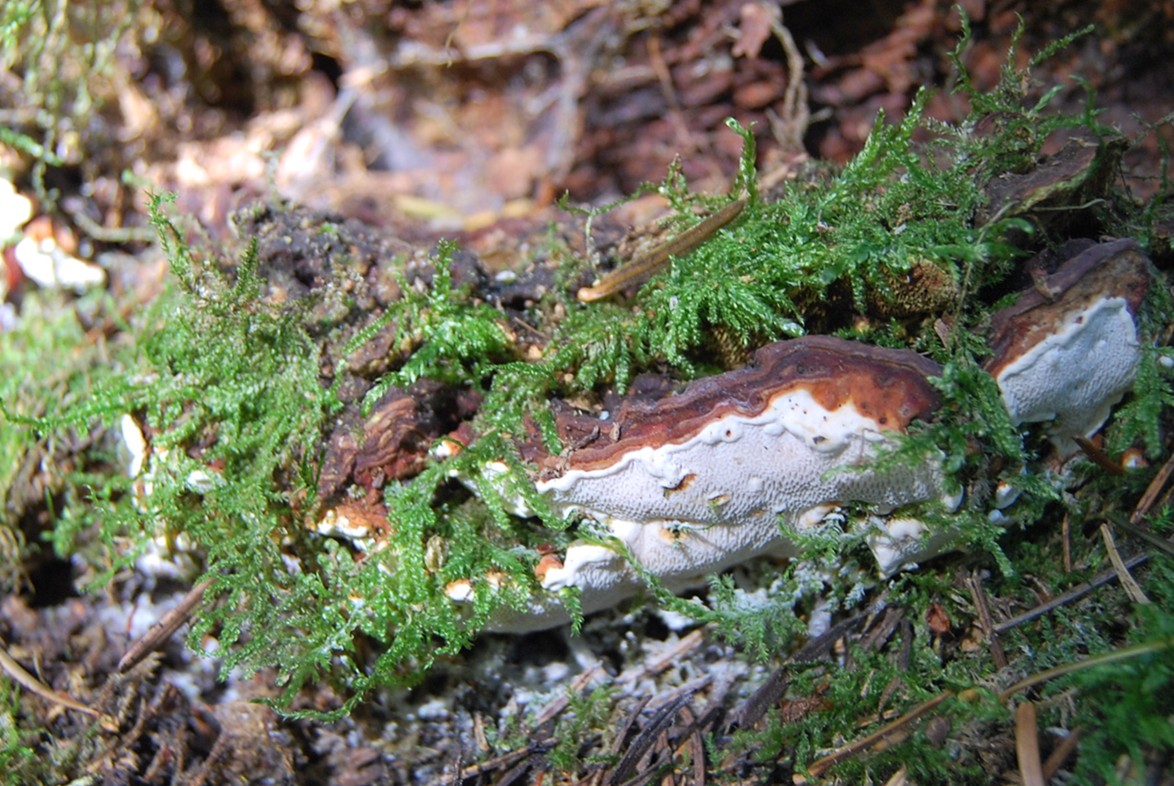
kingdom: Fungi
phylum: Basidiomycota
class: Agaricomycetes
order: Russulales
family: Bondarzewiaceae
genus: Heterobasidion
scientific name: Heterobasidion annosum
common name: almindelig rodfordærver
